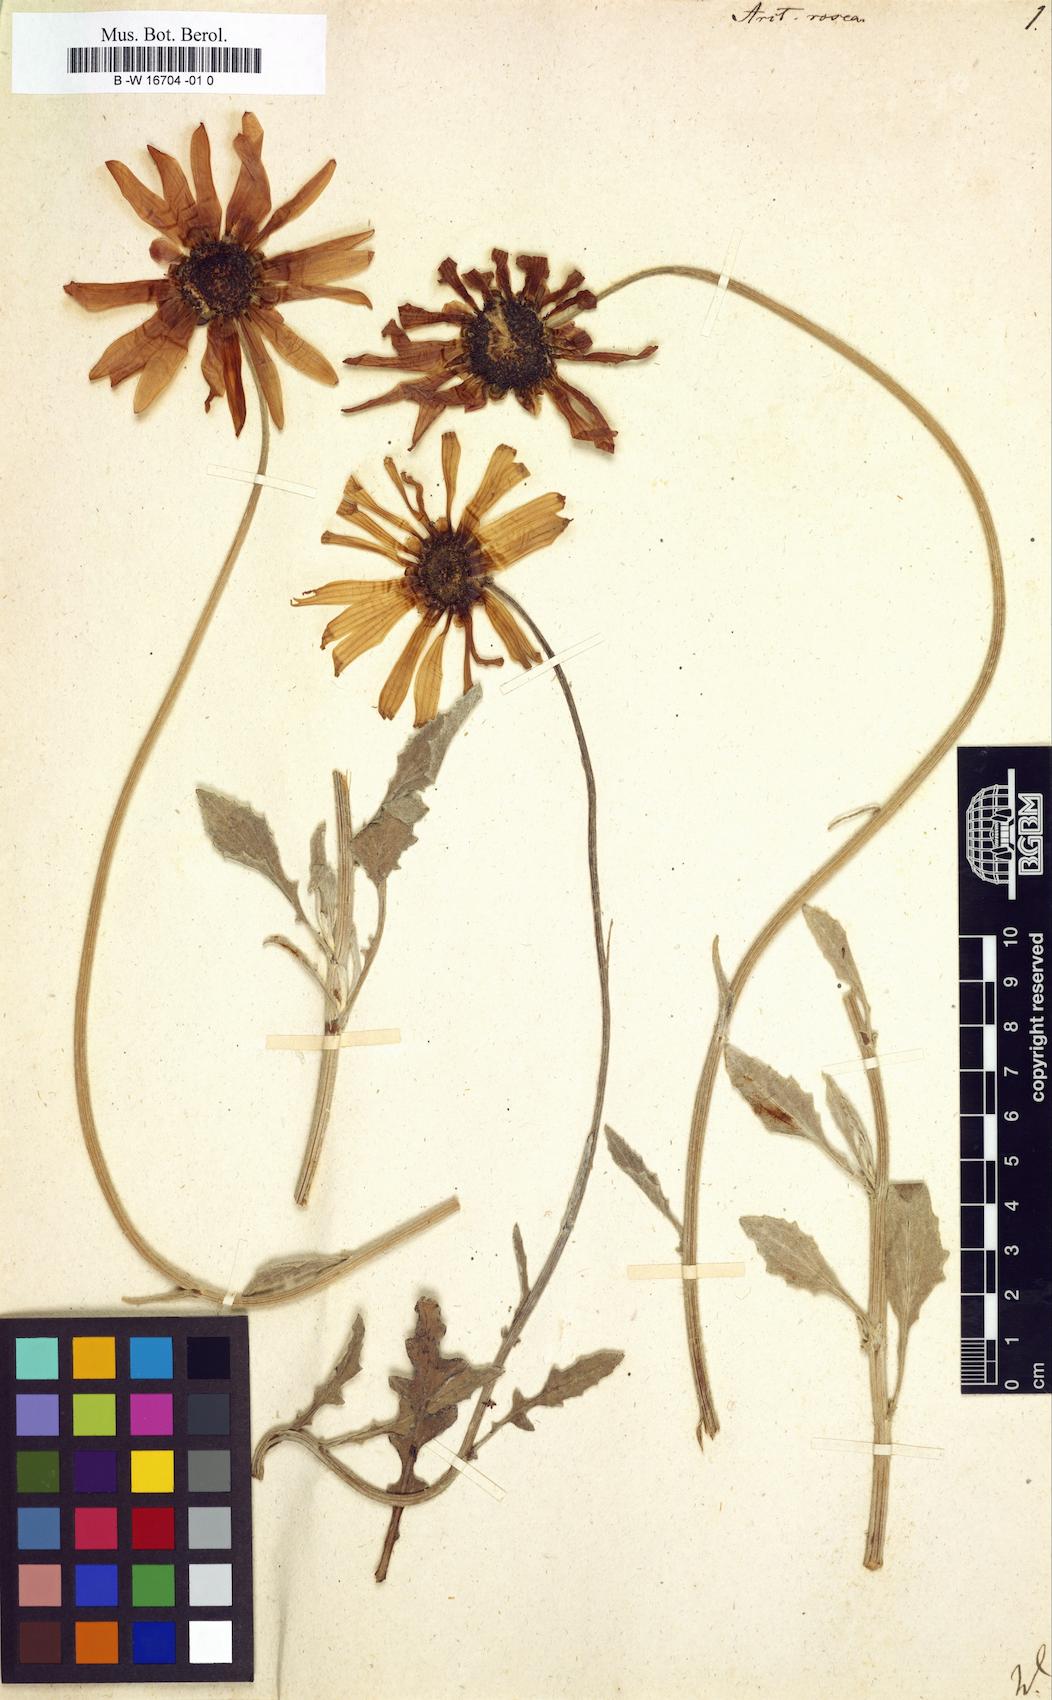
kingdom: Plantae
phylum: Tracheophyta
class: Magnoliopsida
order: Asterales
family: Asteraceae
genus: Arctotis
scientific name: Arctotis rosea
